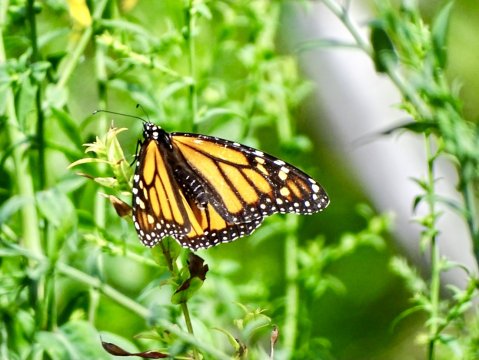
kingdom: Animalia
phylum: Arthropoda
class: Insecta
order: Lepidoptera
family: Nymphalidae
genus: Danaus
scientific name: Danaus plexippus
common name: Monarch
